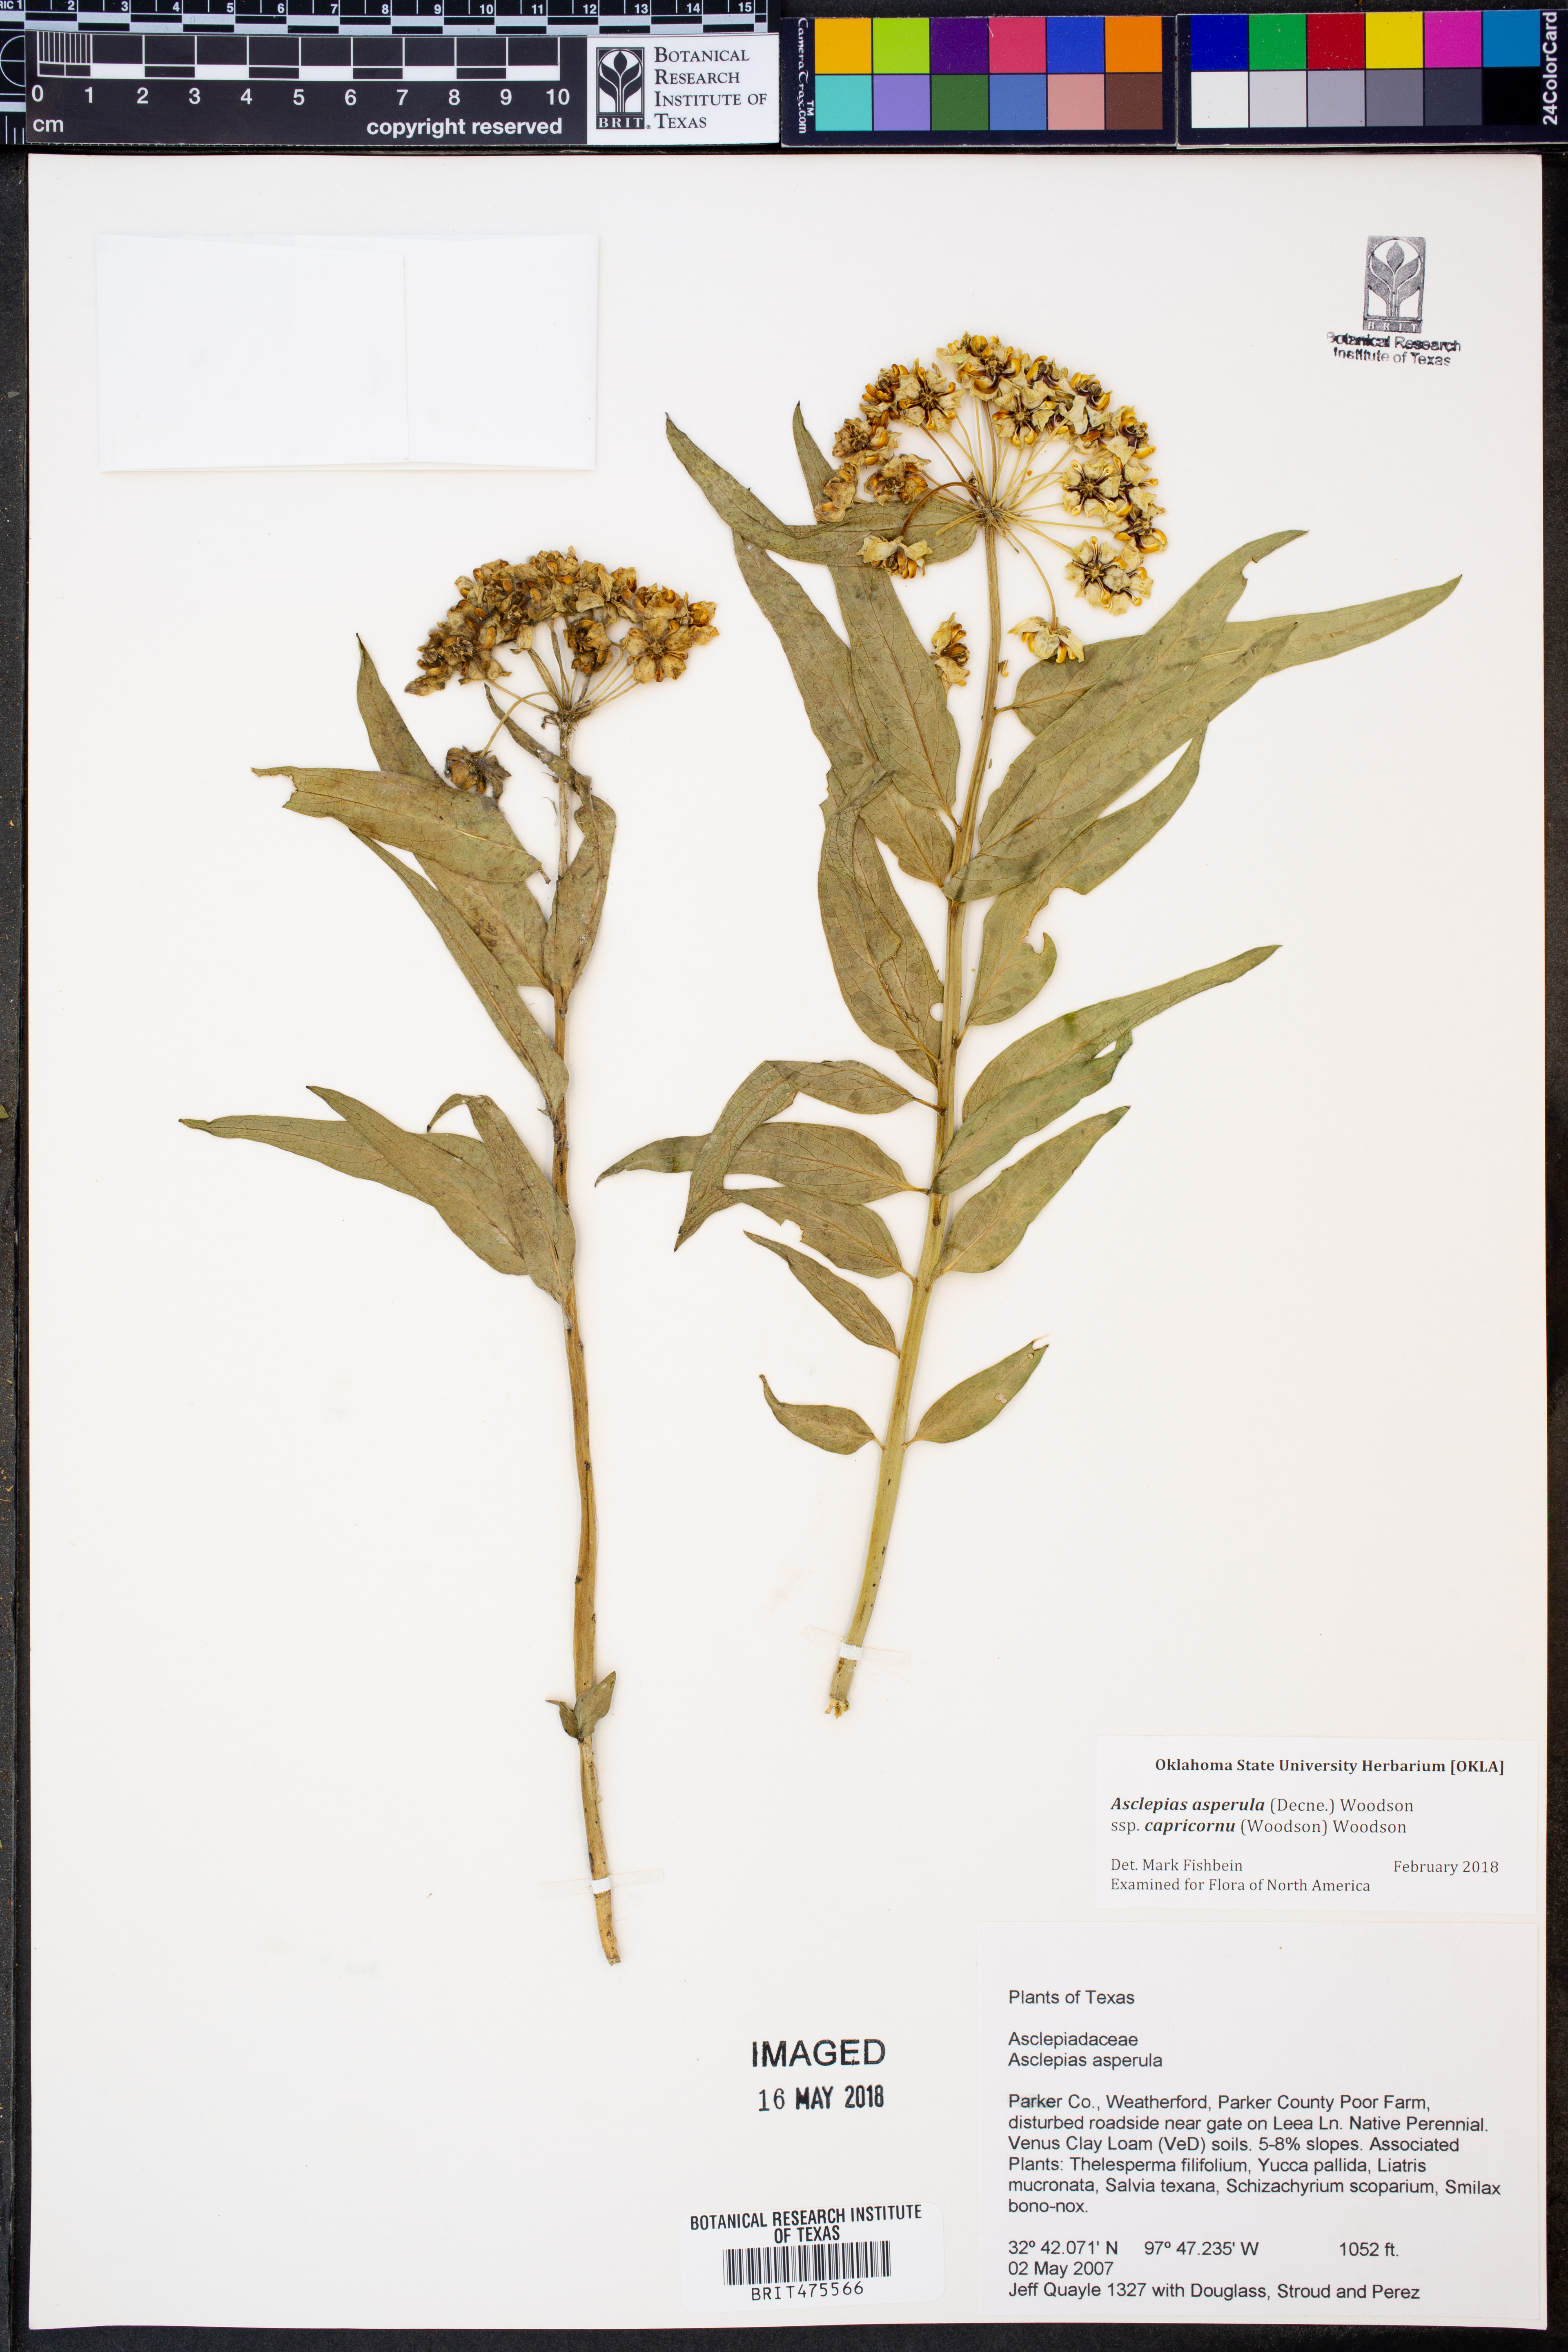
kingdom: Plantae
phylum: Tracheophyta
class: Magnoliopsida
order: Gentianales
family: Apocynaceae
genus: Asclepias
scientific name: Asclepias asperula
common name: Antelope horns
